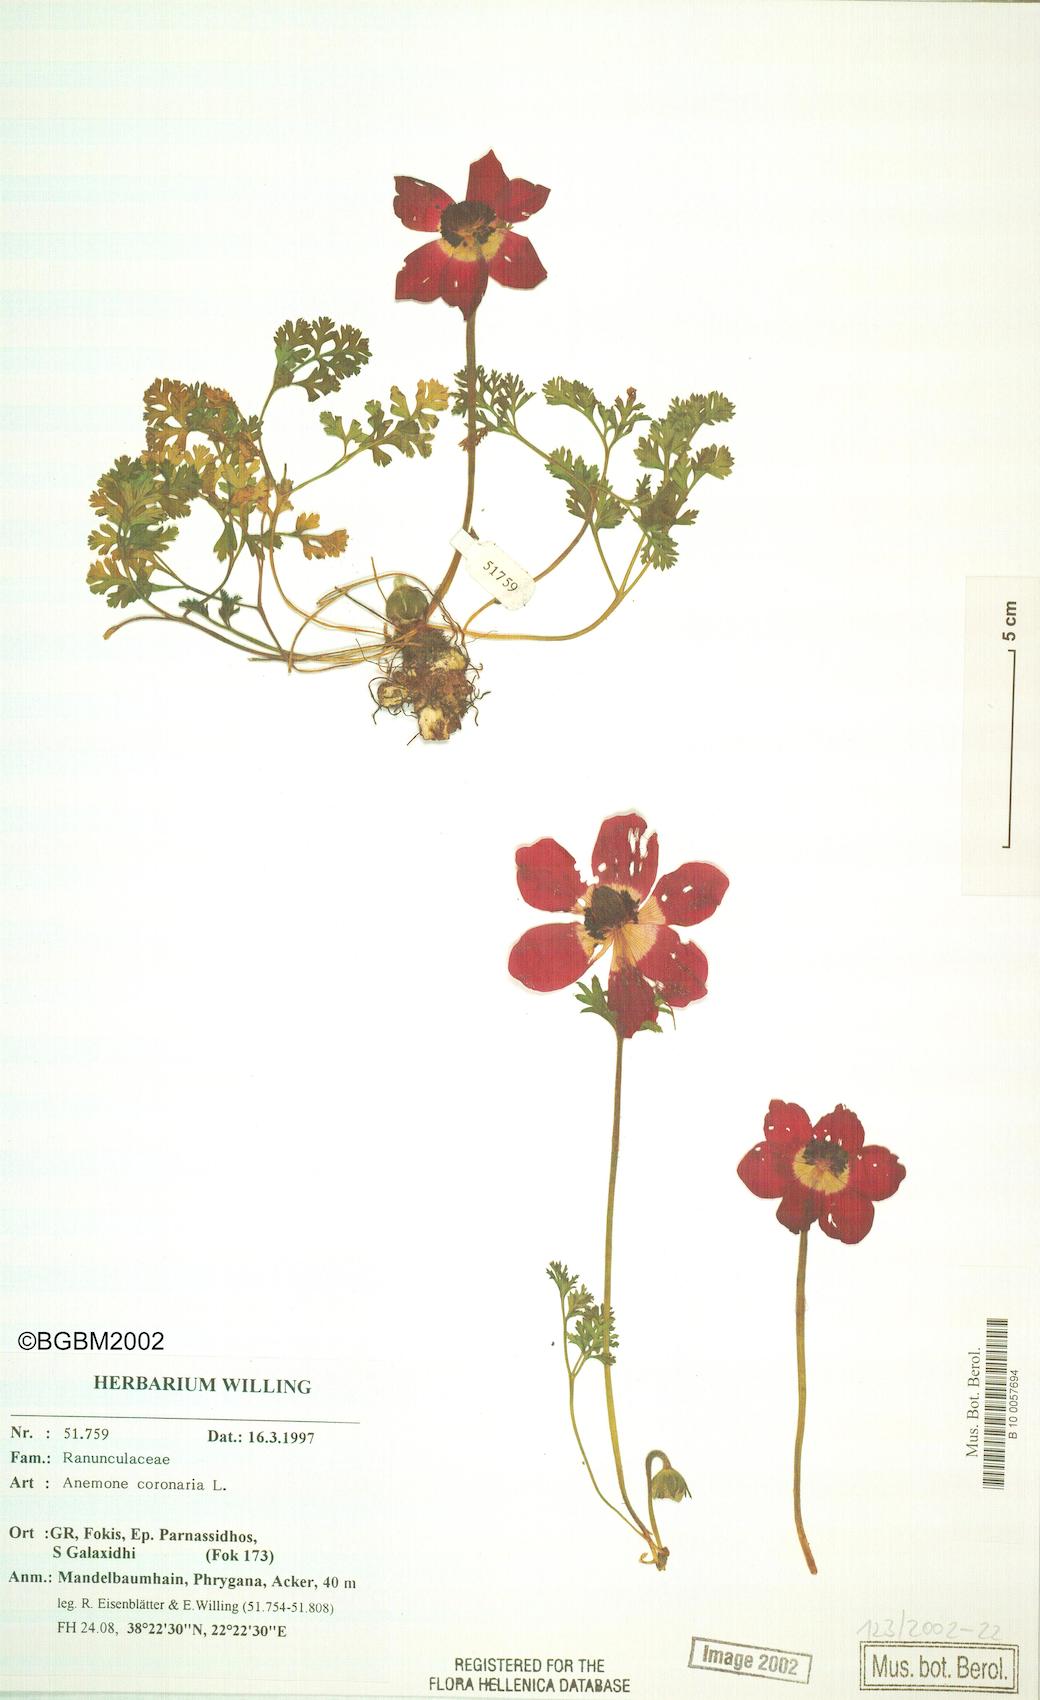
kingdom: Plantae
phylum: Tracheophyta
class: Magnoliopsida
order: Ranunculales
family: Ranunculaceae
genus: Anemone
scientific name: Anemone coronaria
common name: Poppy anemone
